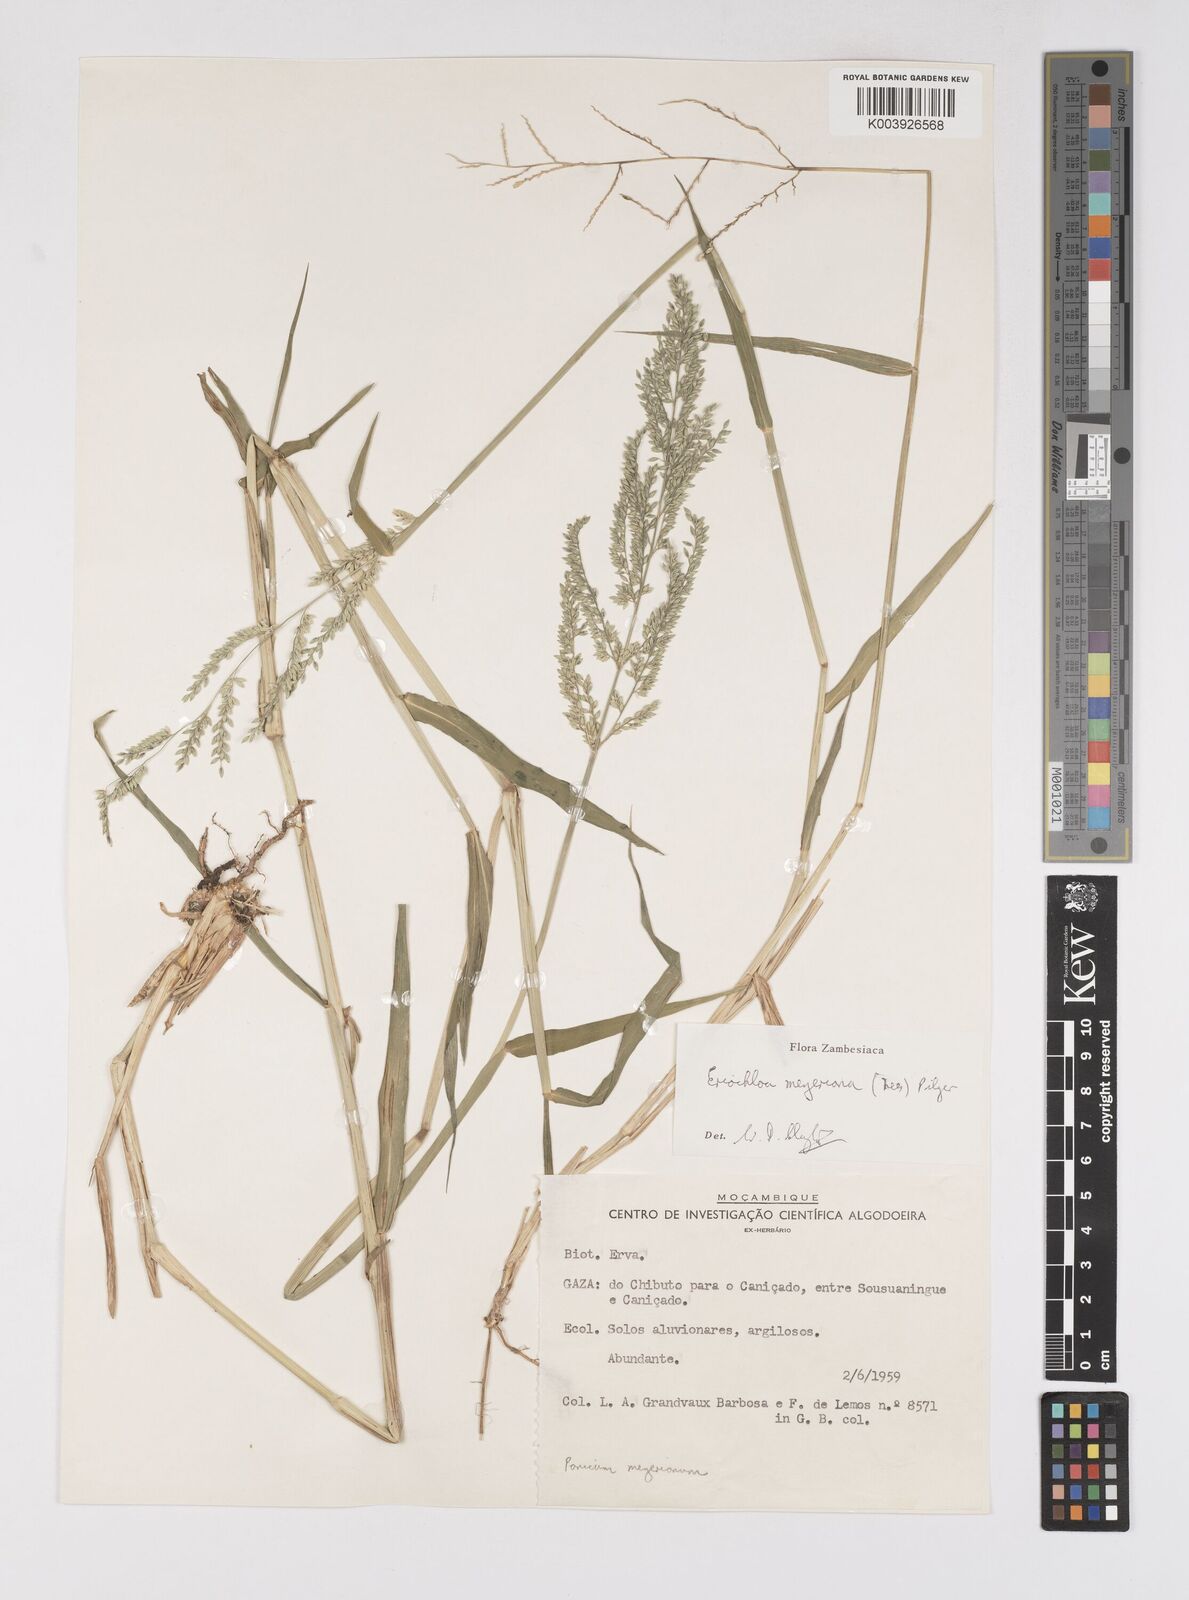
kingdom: Plantae
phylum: Tracheophyta
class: Liliopsida
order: Poales
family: Poaceae
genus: Eriochloa
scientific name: Eriochloa meyeriana
